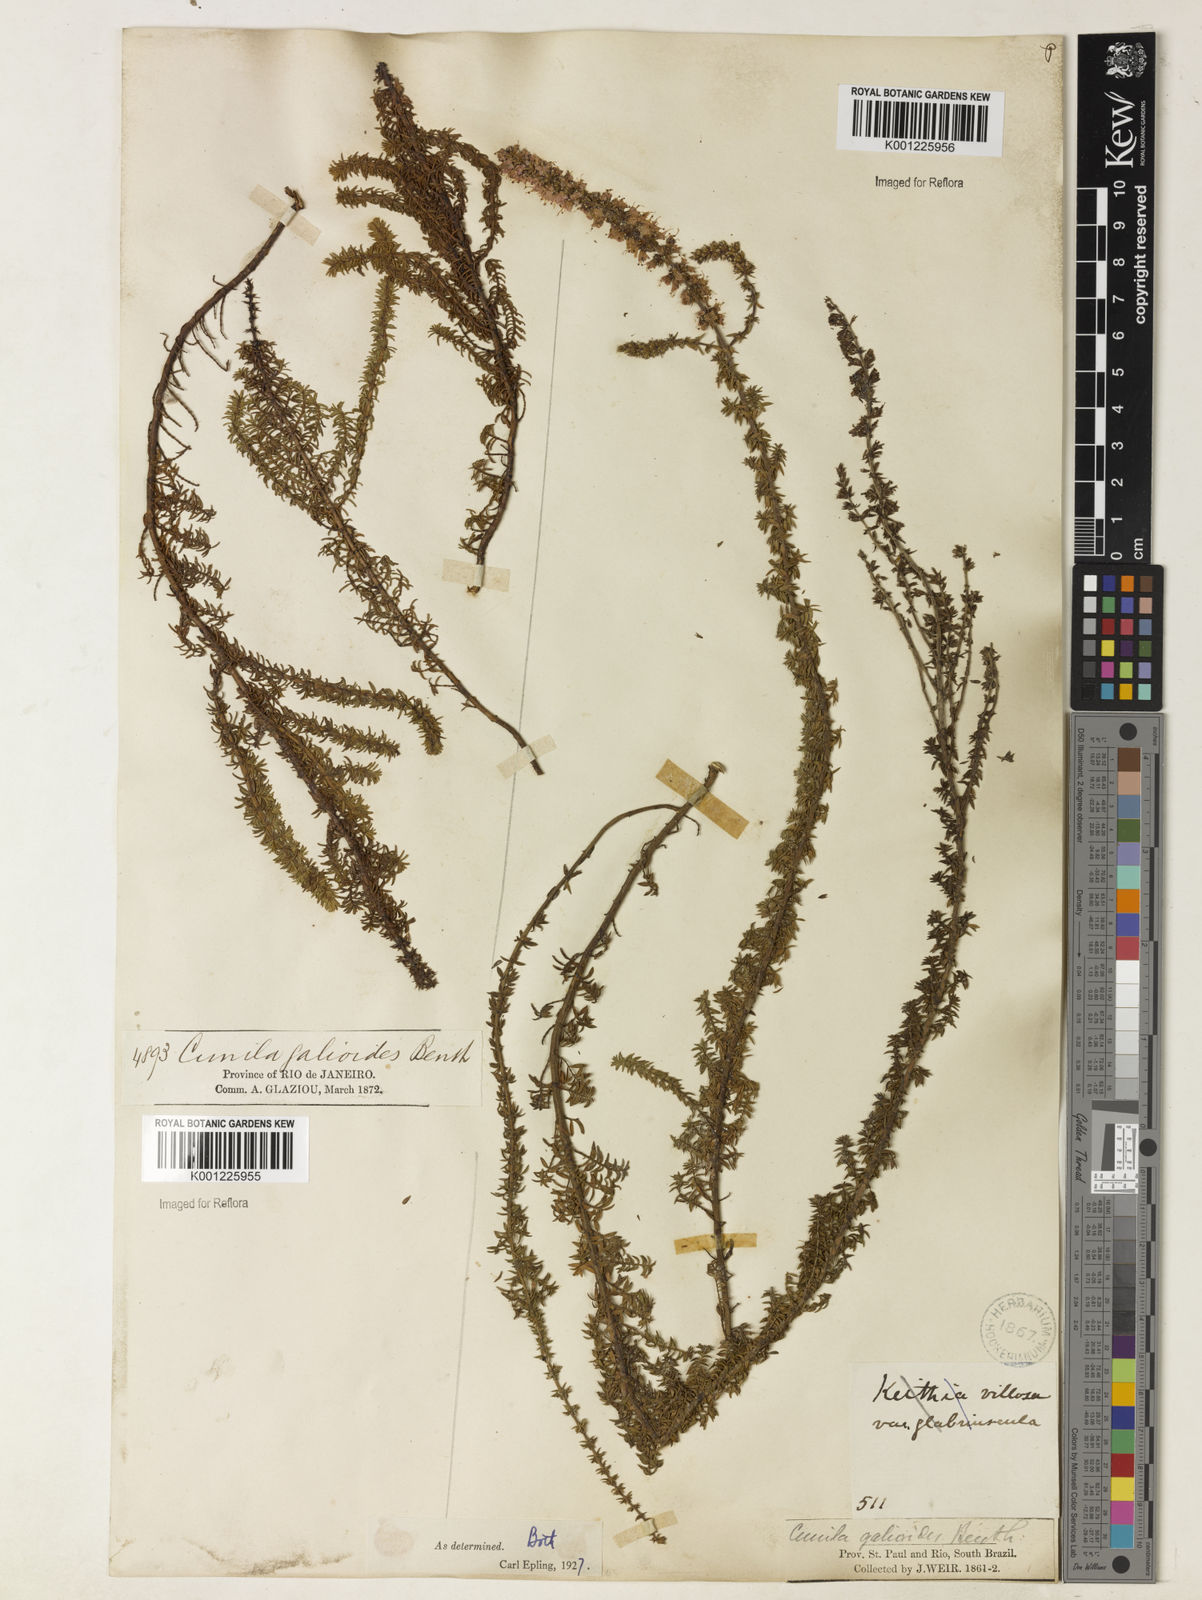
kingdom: Plantae
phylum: Tracheophyta
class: Magnoliopsida
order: Lamiales
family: Lamiaceae
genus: Cunila
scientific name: Cunila galioides
